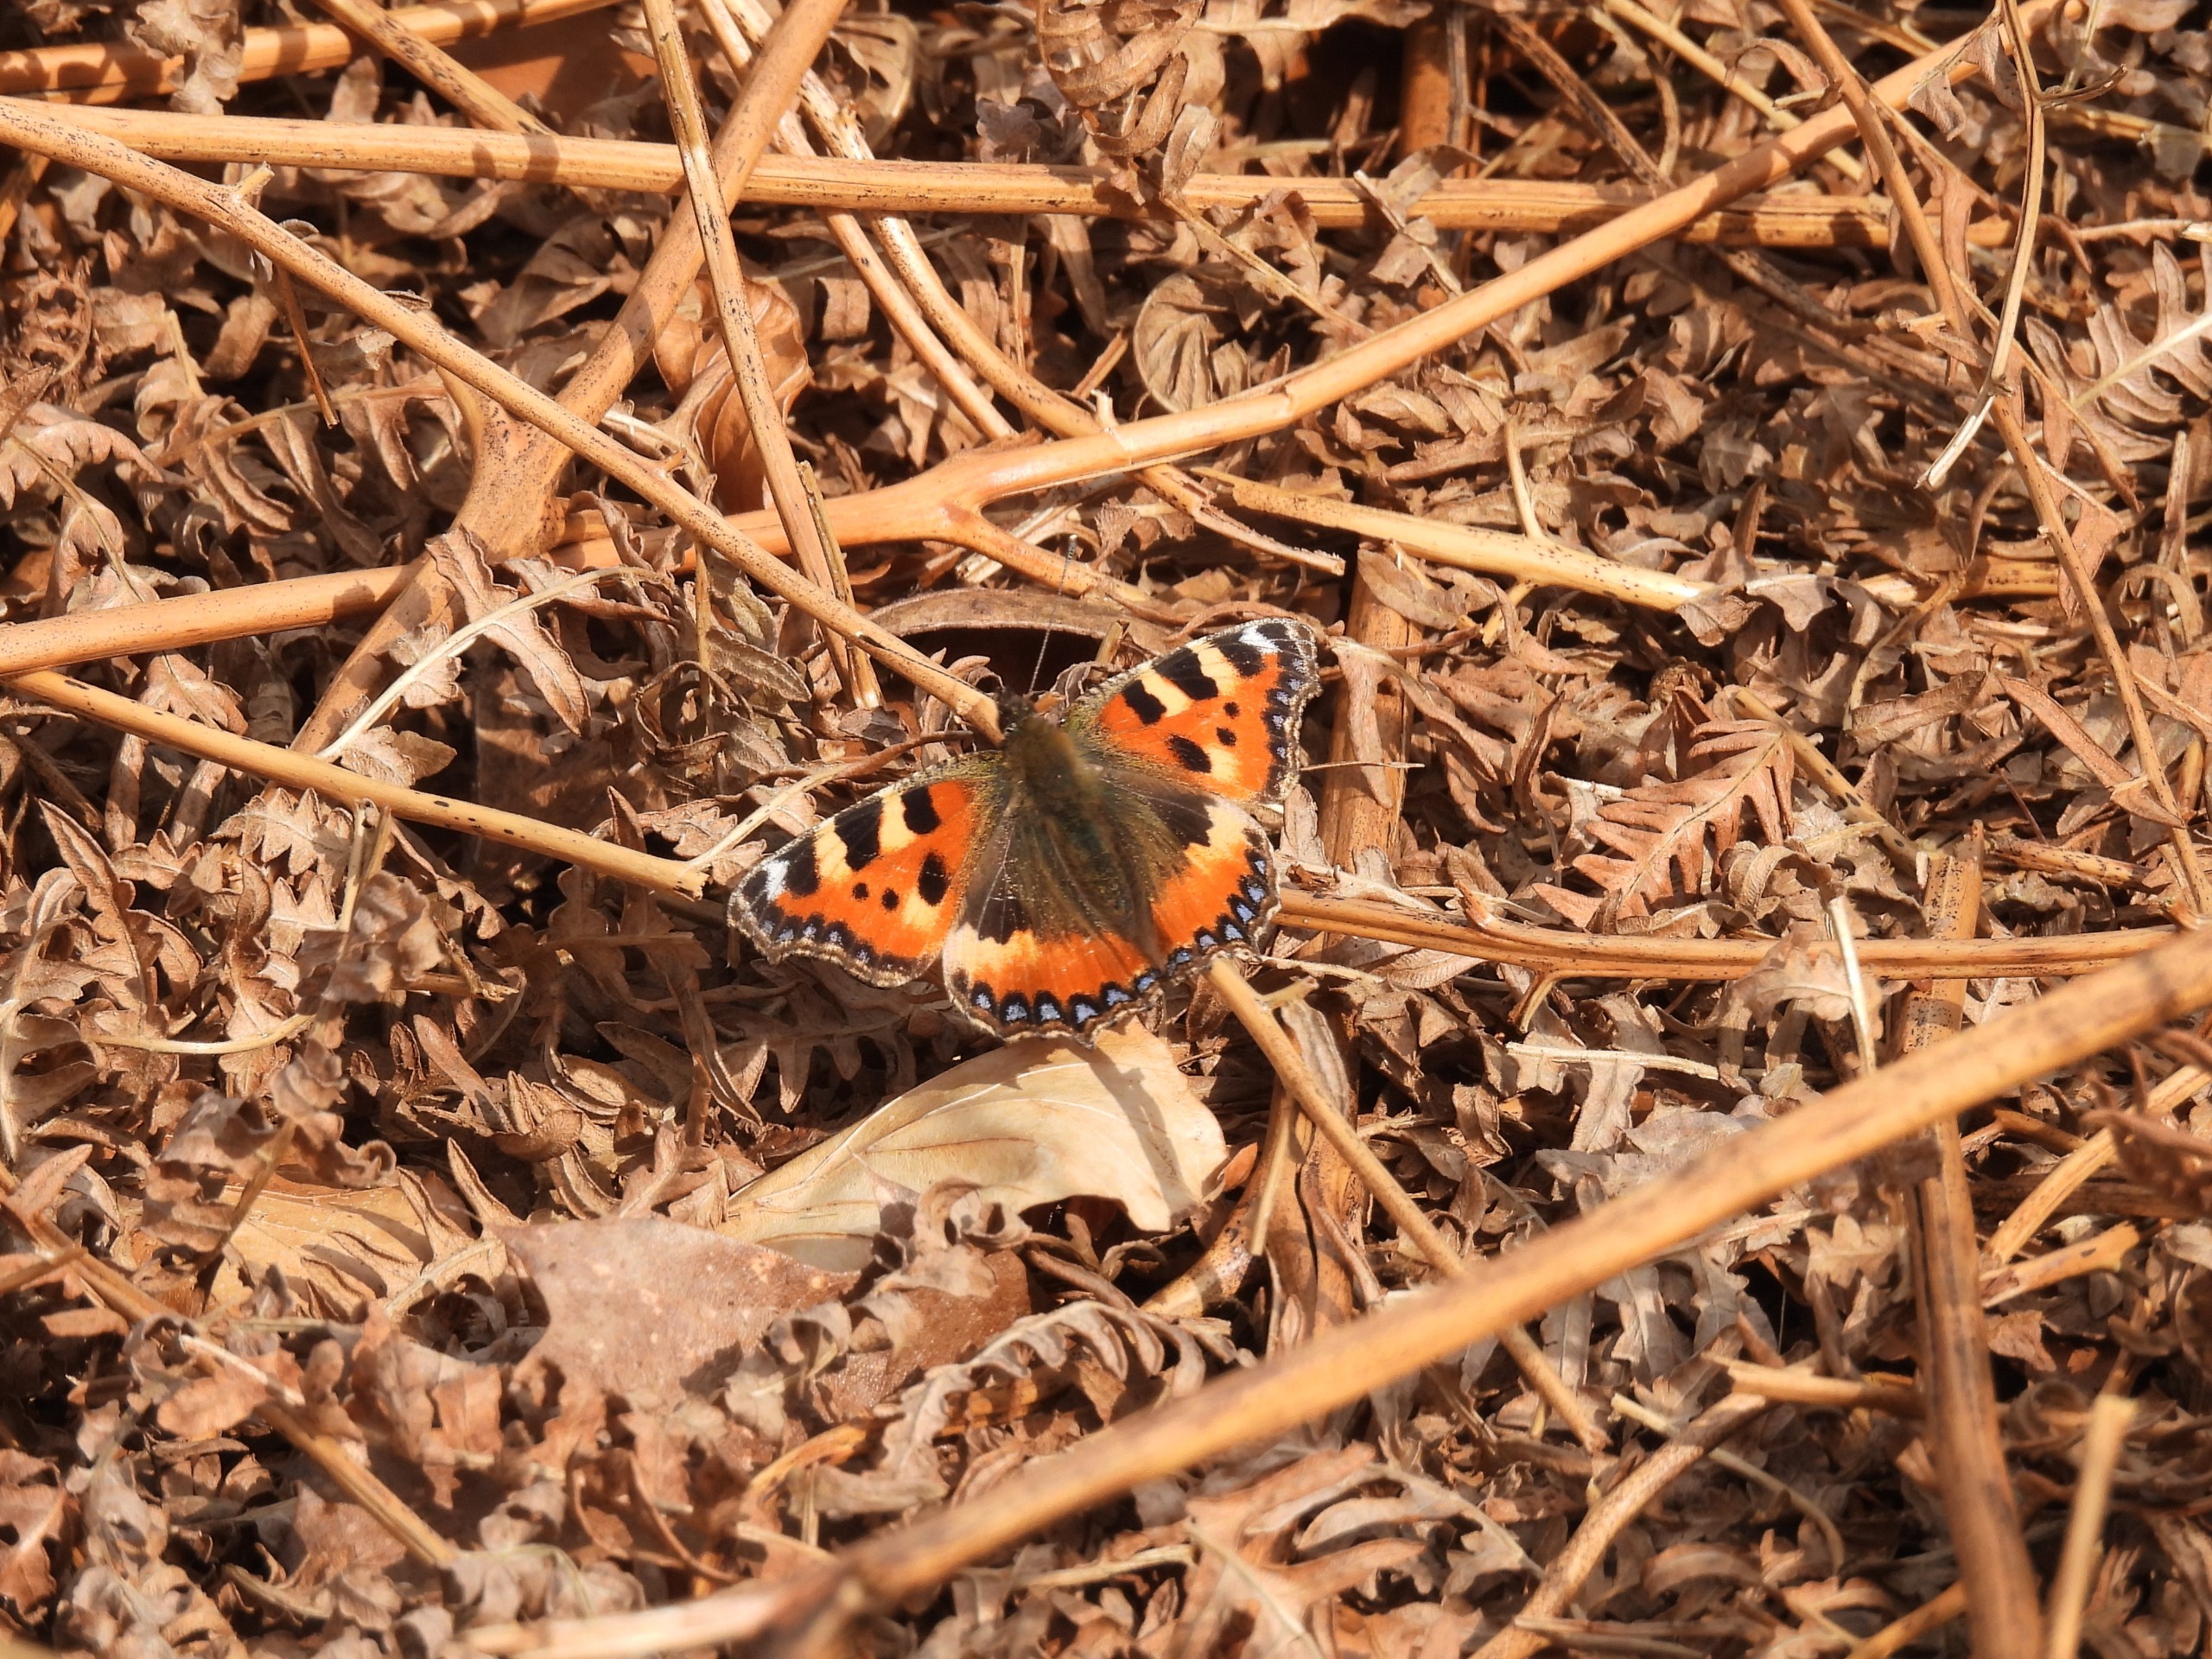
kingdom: Animalia
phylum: Arthropoda
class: Insecta
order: Lepidoptera
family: Nymphalidae
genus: Aglais
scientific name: Aglais urticae
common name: Nældens takvinge
